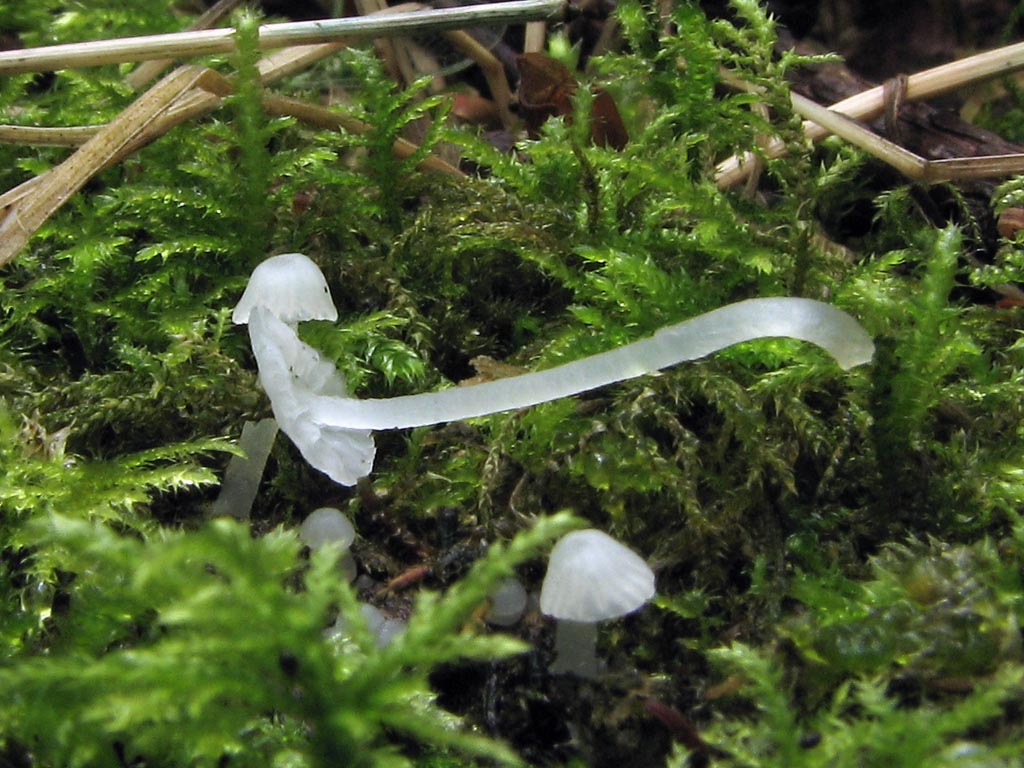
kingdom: Fungi
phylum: Basidiomycota
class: Agaricomycetes
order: Agaricales
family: Tricholomataceae
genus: Delicatula
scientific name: Delicatula integrella
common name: slørhuesvamp
